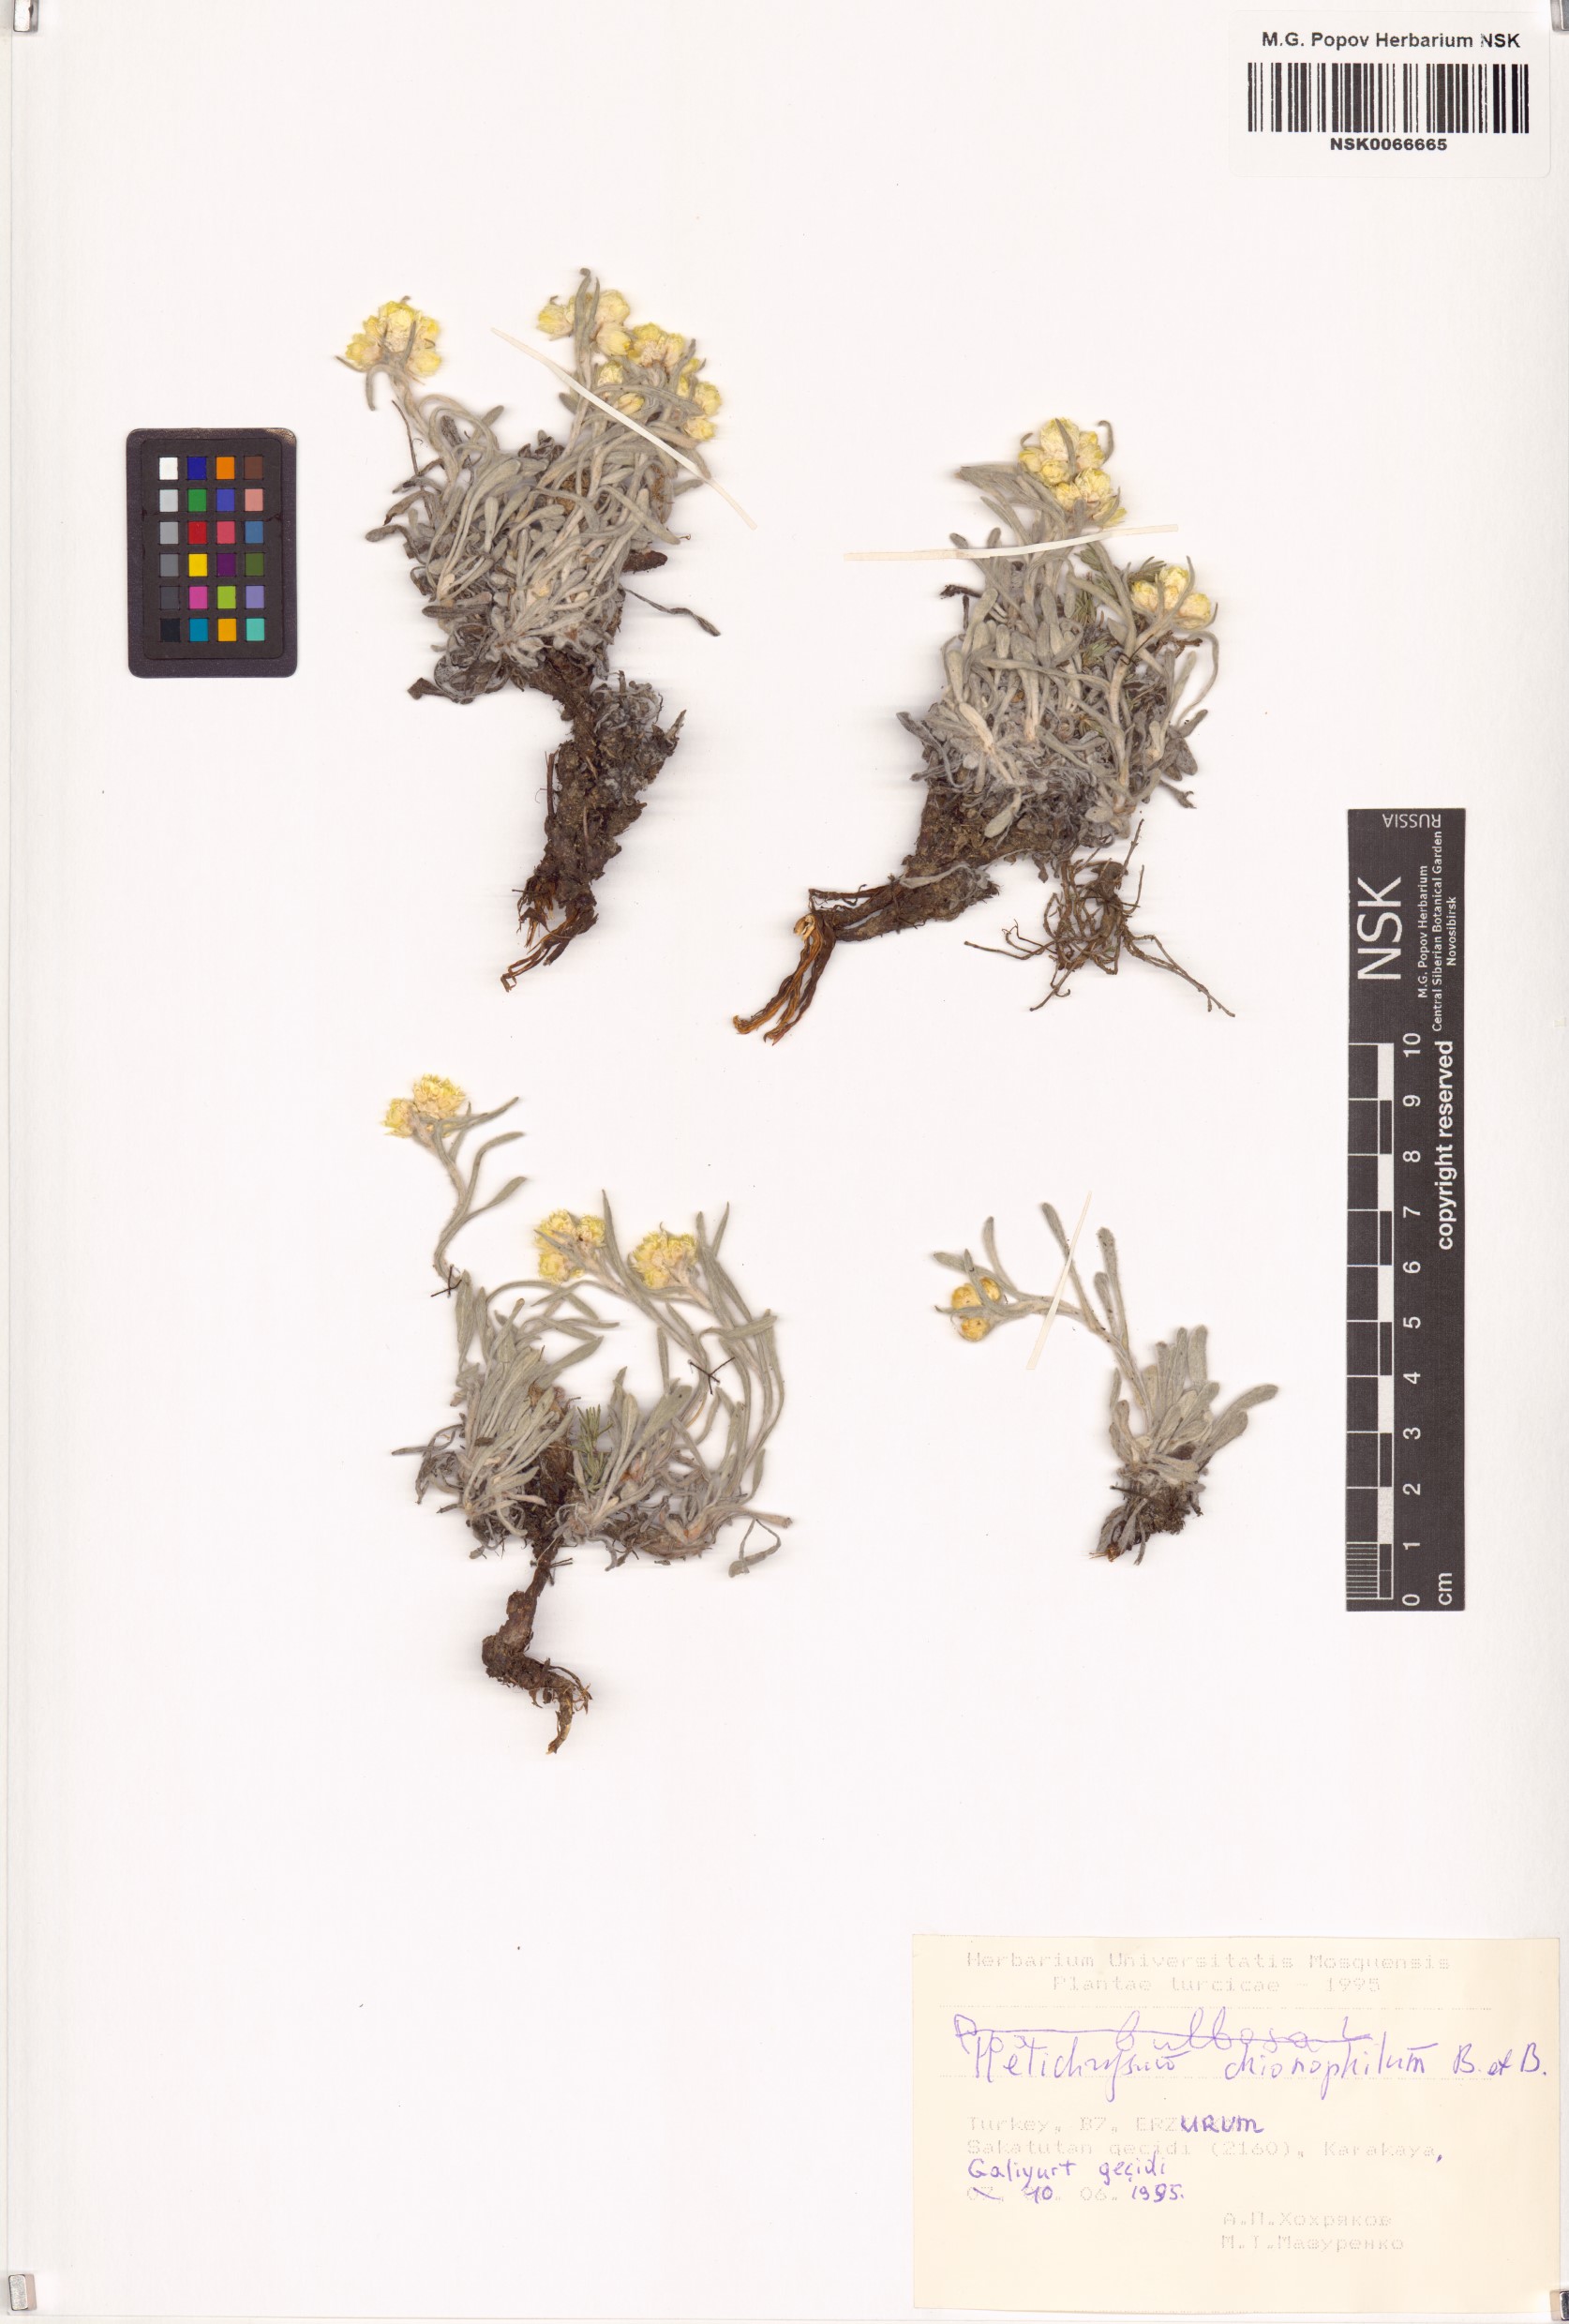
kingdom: Plantae
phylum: Tracheophyta
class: Magnoliopsida
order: Asterales
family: Asteraceae
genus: Helichrysum
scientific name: Helichrysum chionophilum
